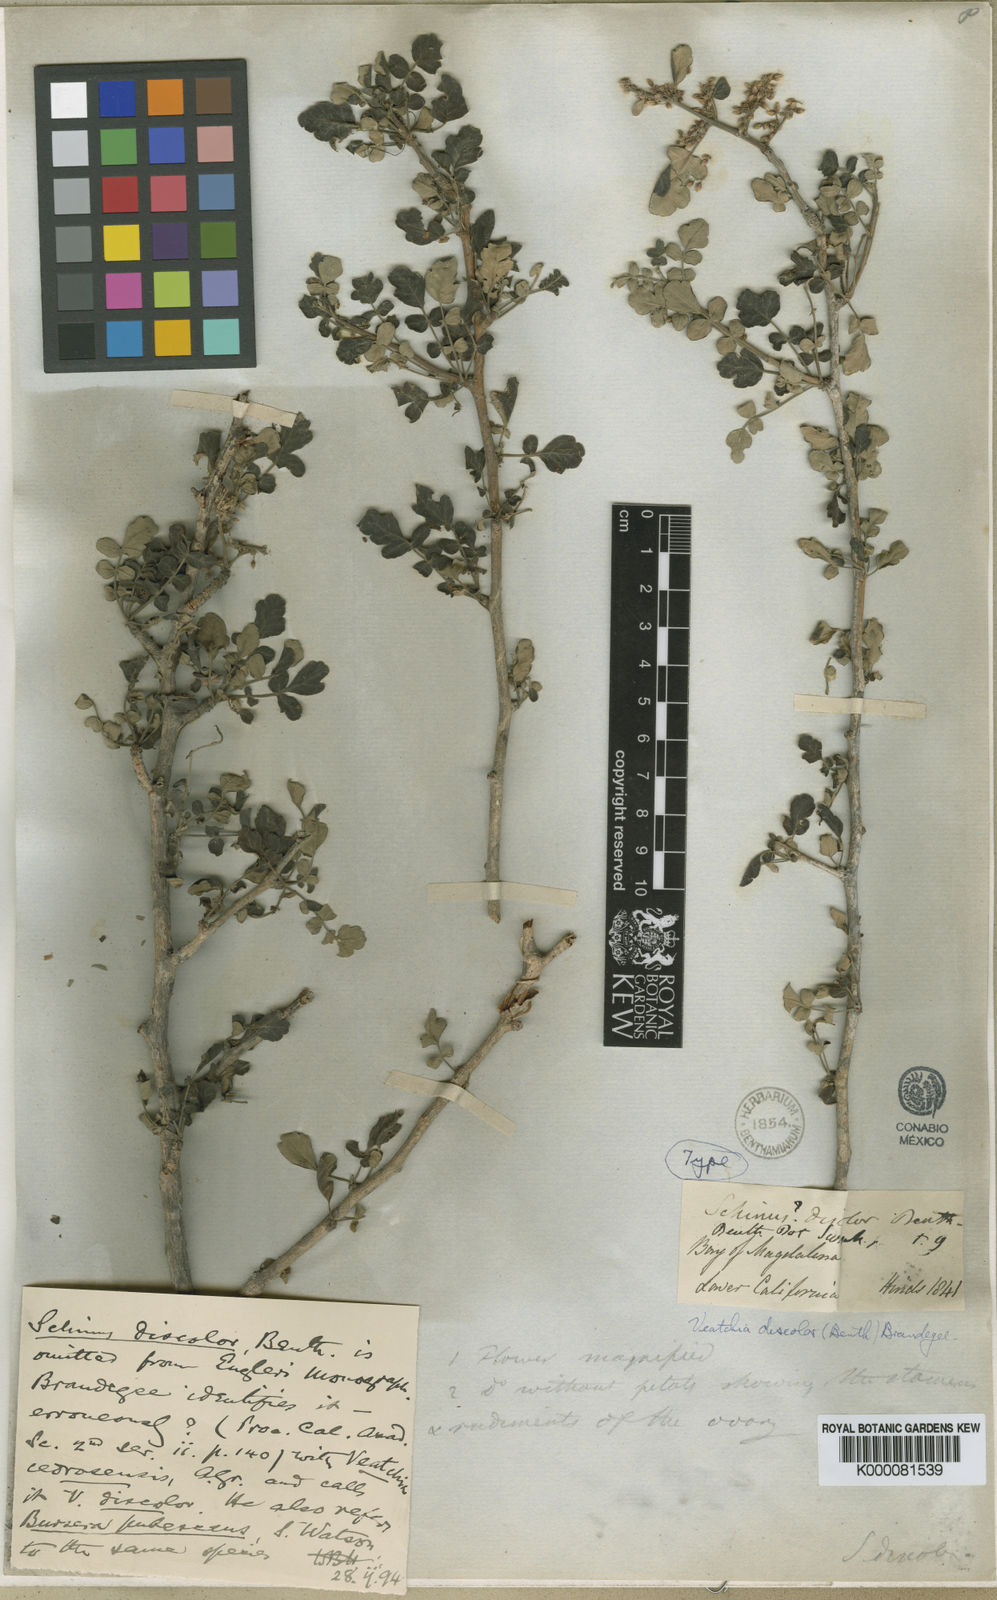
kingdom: Plantae
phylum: Tracheophyta
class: Magnoliopsida
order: Sapindales
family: Anacardiaceae
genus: Pachycormus
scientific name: Pachycormus
